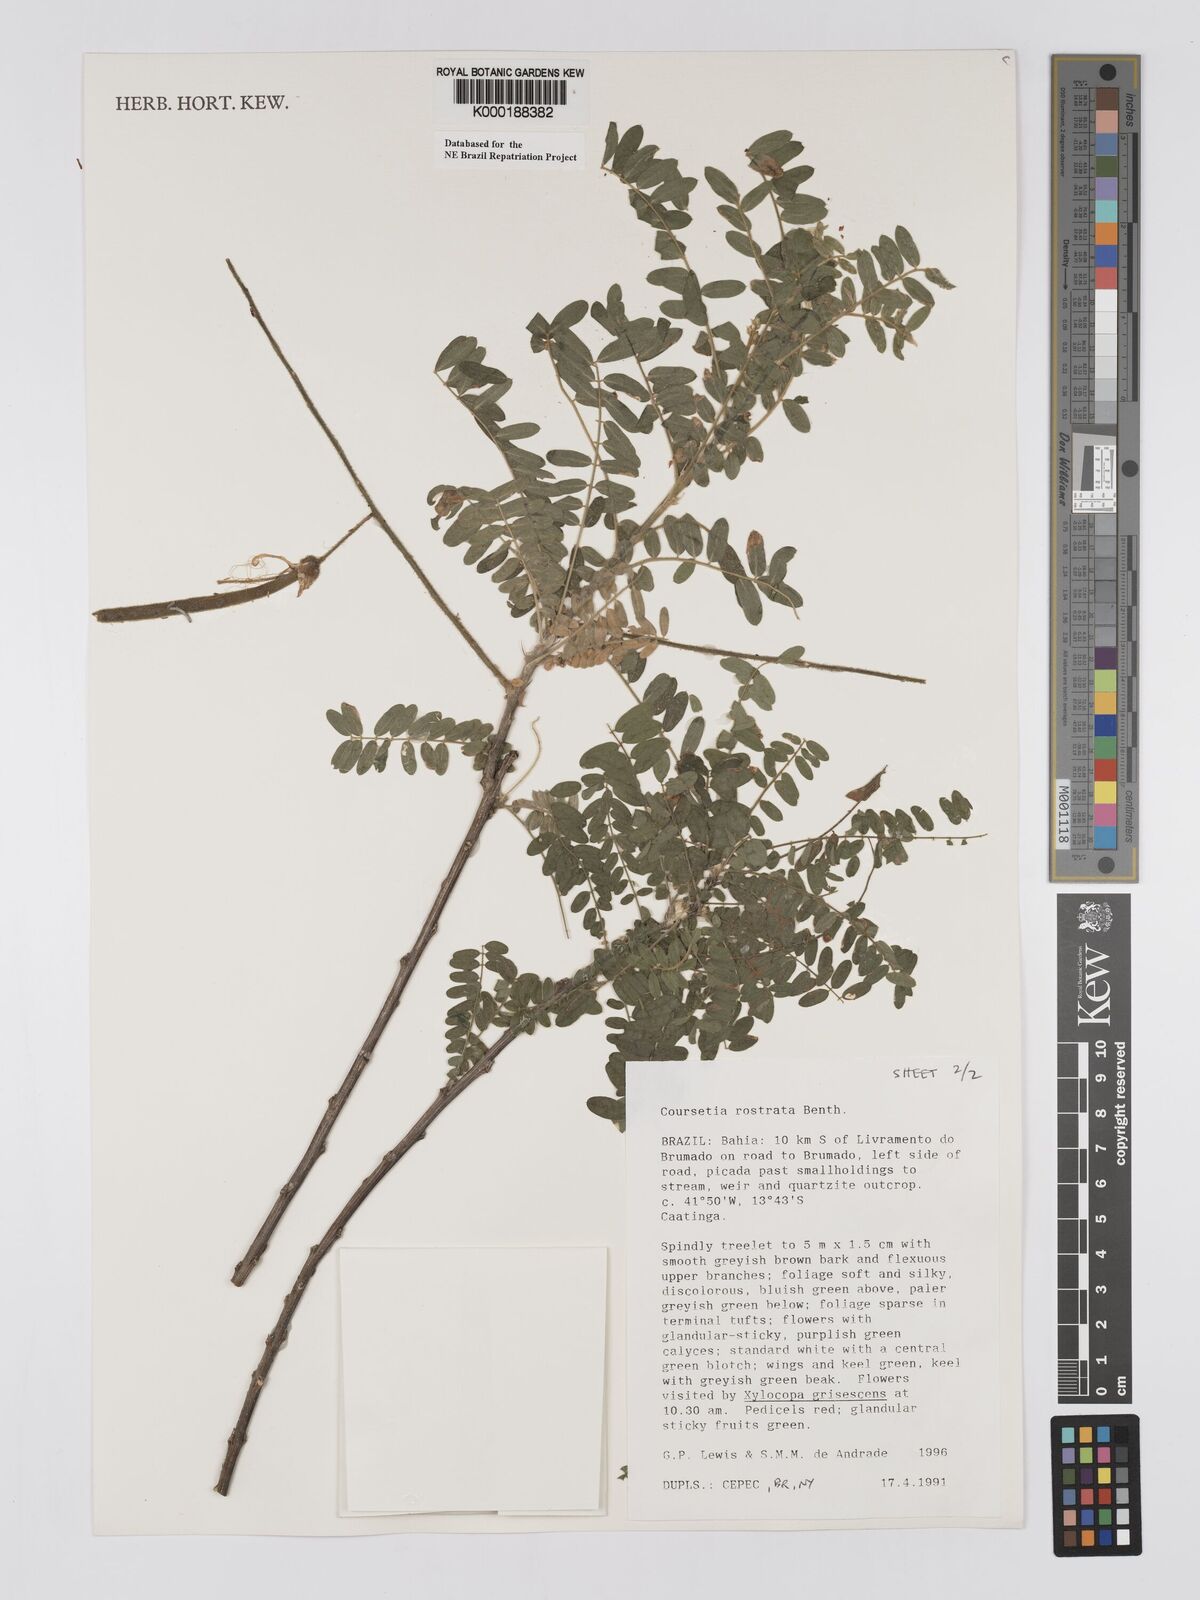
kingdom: Plantae
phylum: Tracheophyta
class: Magnoliopsida
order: Fabales
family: Fabaceae
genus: Coursetia
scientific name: Coursetia rostrata
